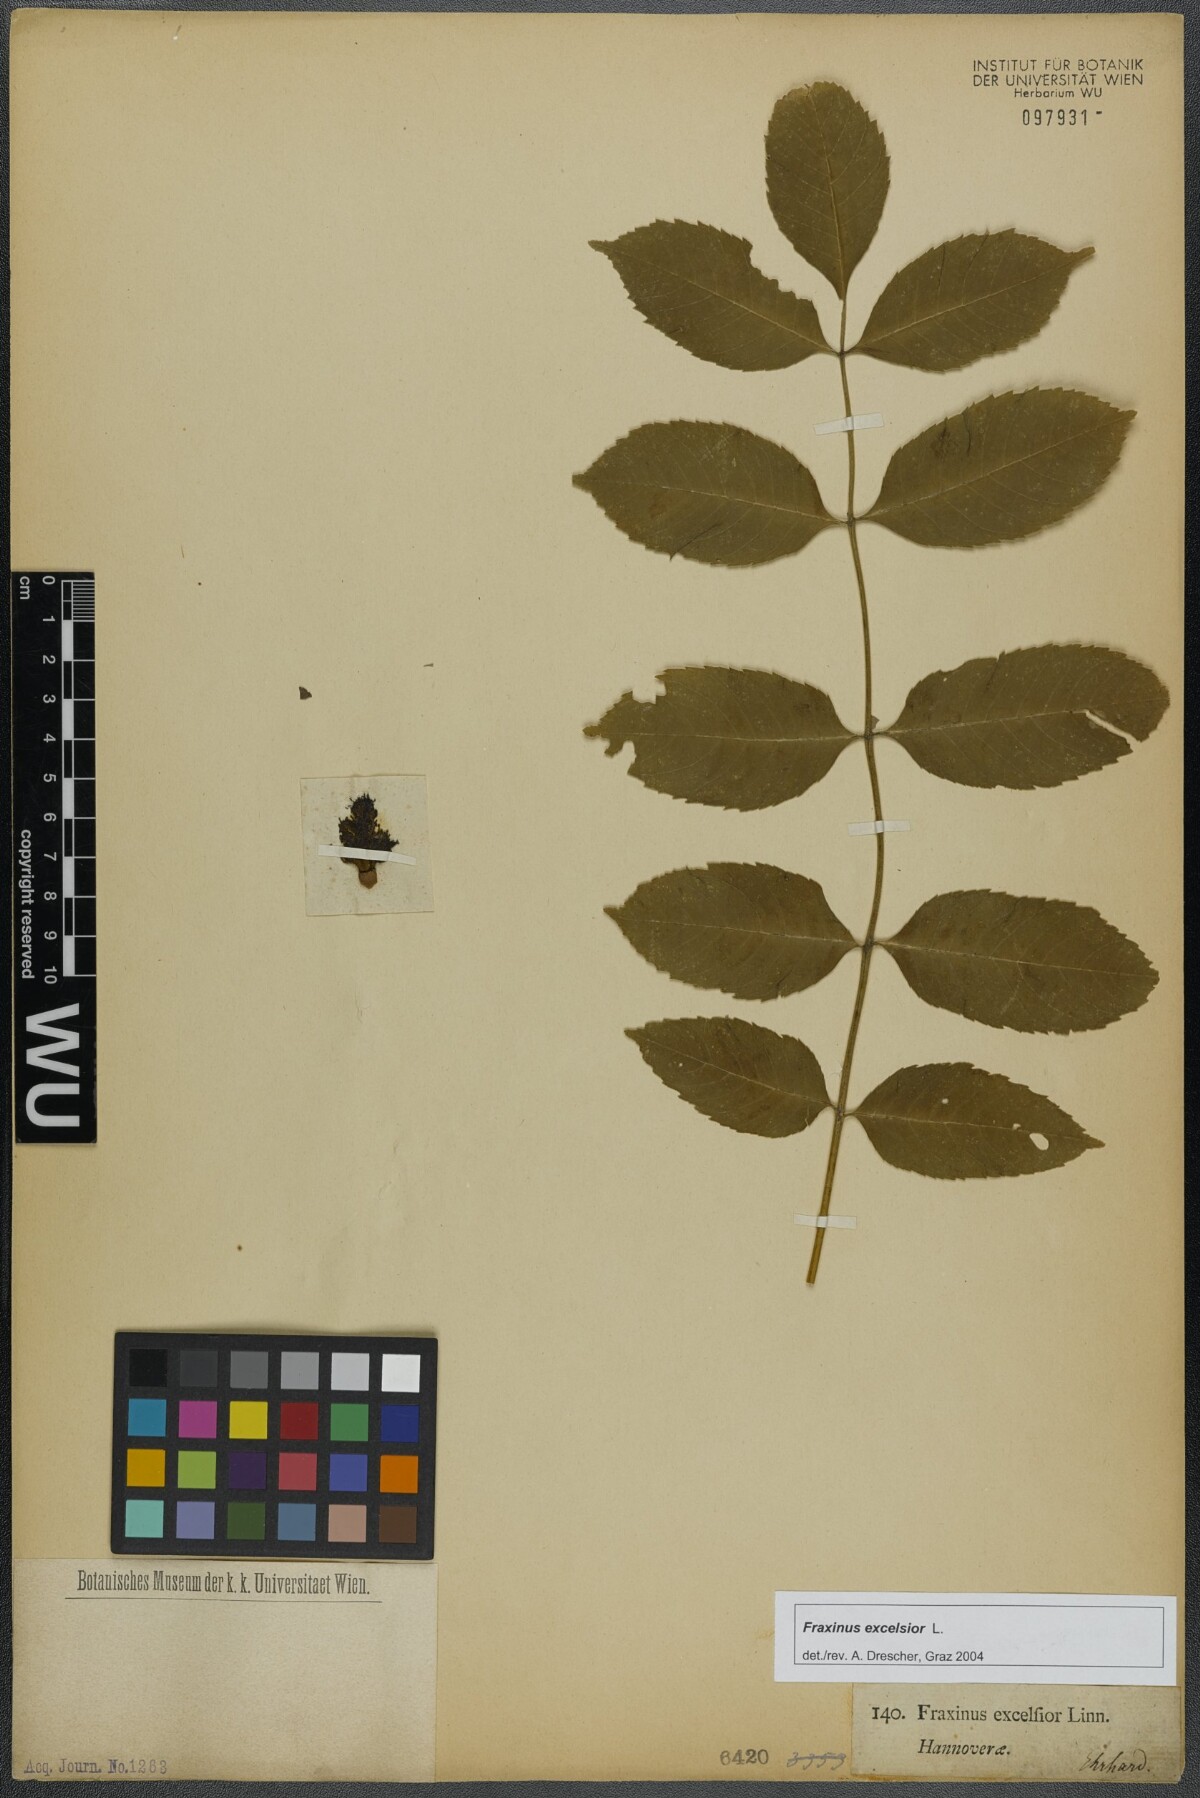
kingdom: Plantae
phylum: Tracheophyta
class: Magnoliopsida
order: Lamiales
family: Oleaceae
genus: Fraxinus
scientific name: Fraxinus excelsior
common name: European ash
